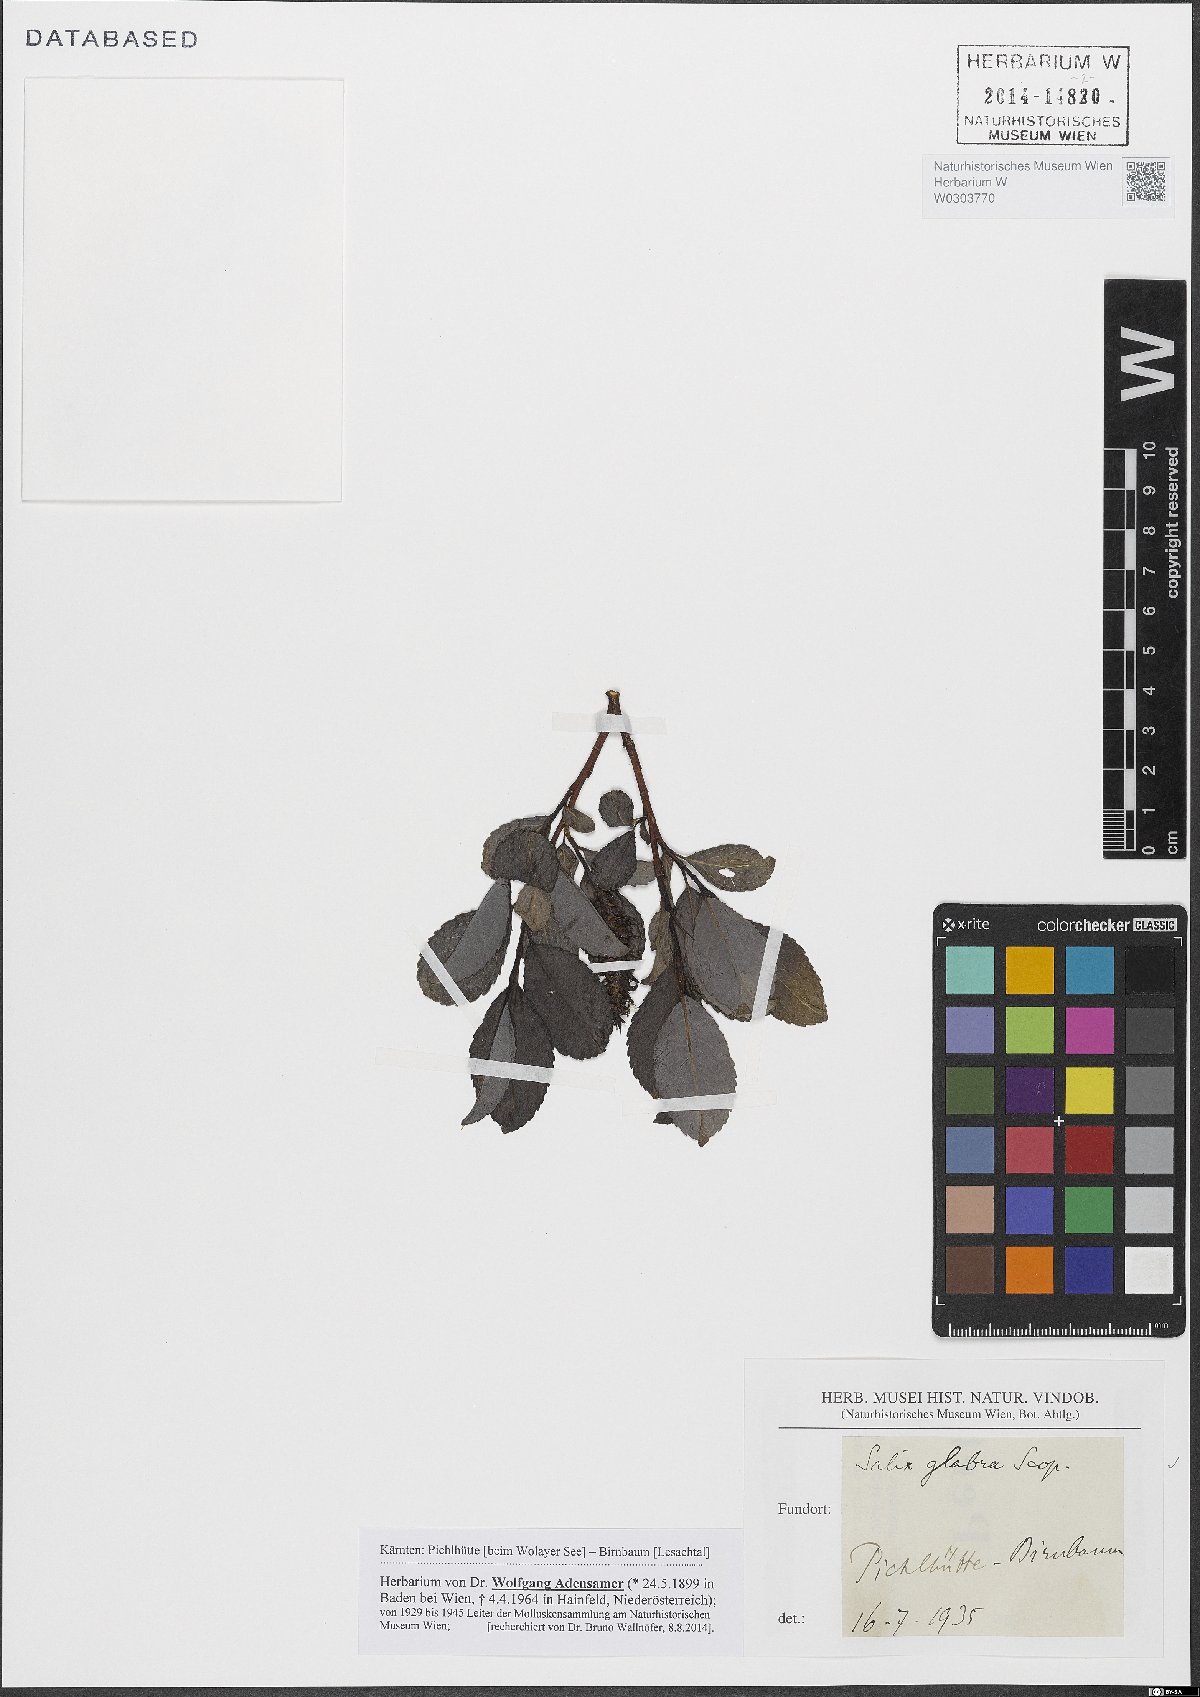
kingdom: Plantae
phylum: Tracheophyta
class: Magnoliopsida
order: Malpighiales
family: Salicaceae
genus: Salix
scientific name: Salix glabra
